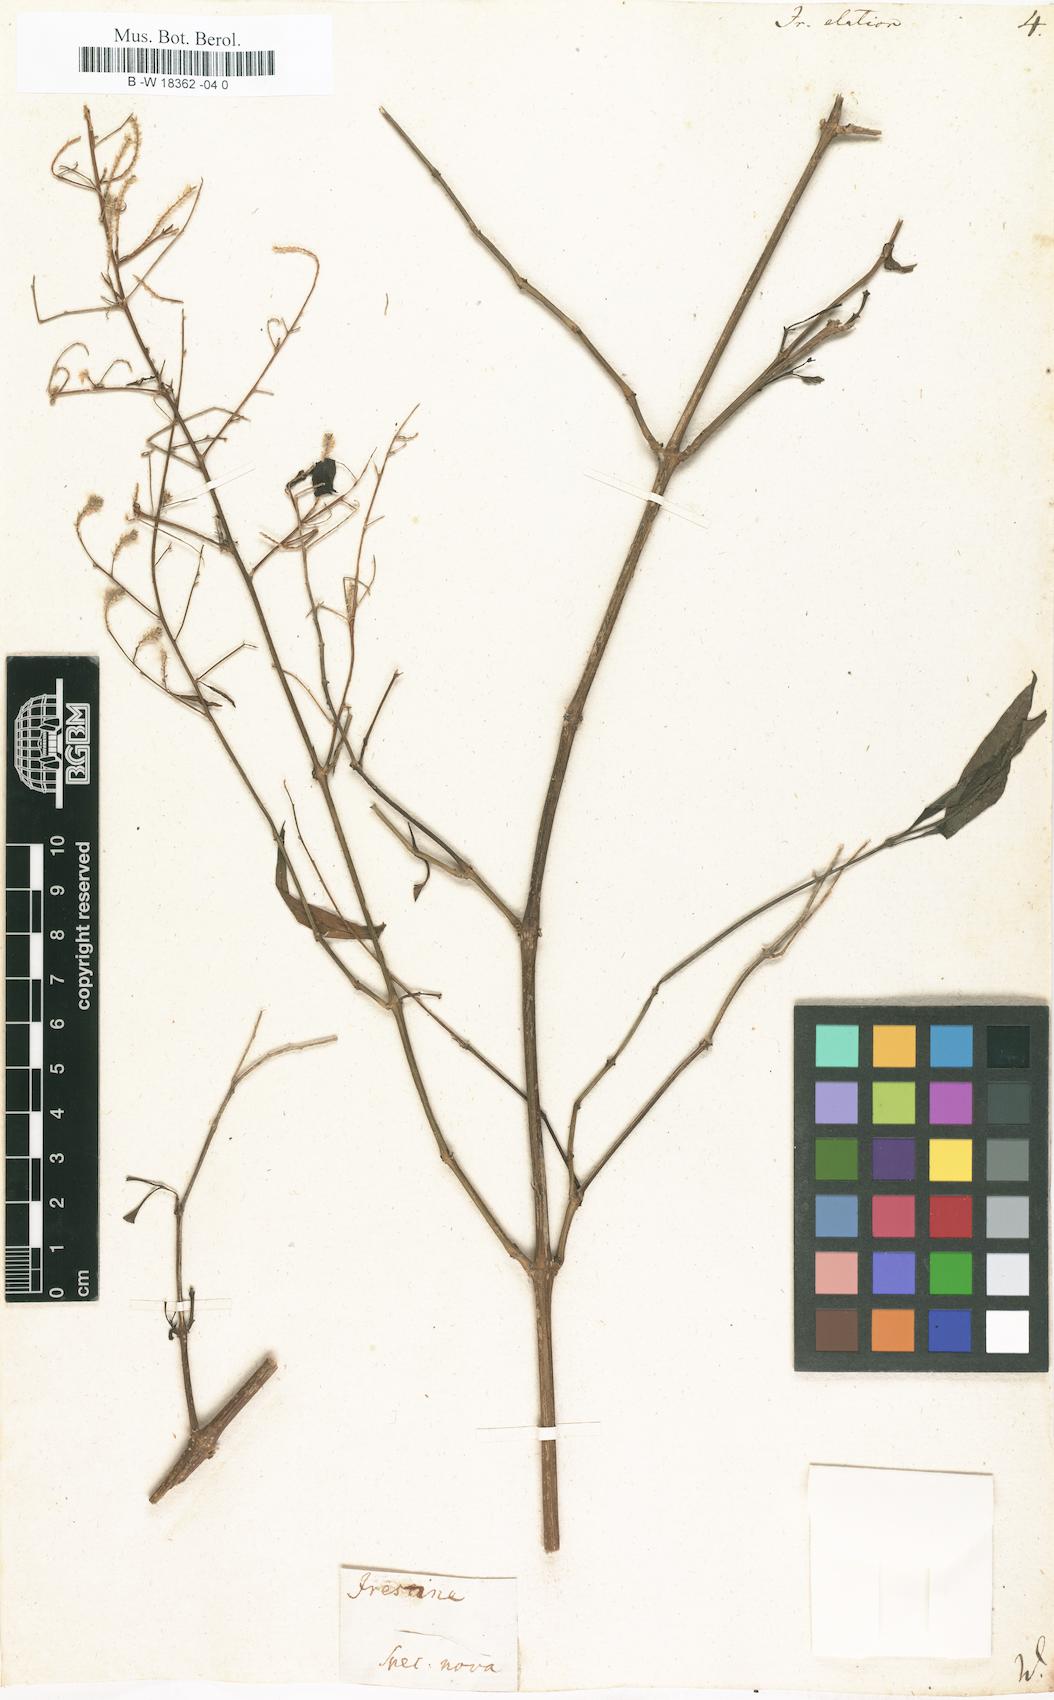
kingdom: Plantae
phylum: Tracheophyta
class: Magnoliopsida
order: Caryophyllales
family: Amaranthaceae
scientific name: Amaranthaceae
